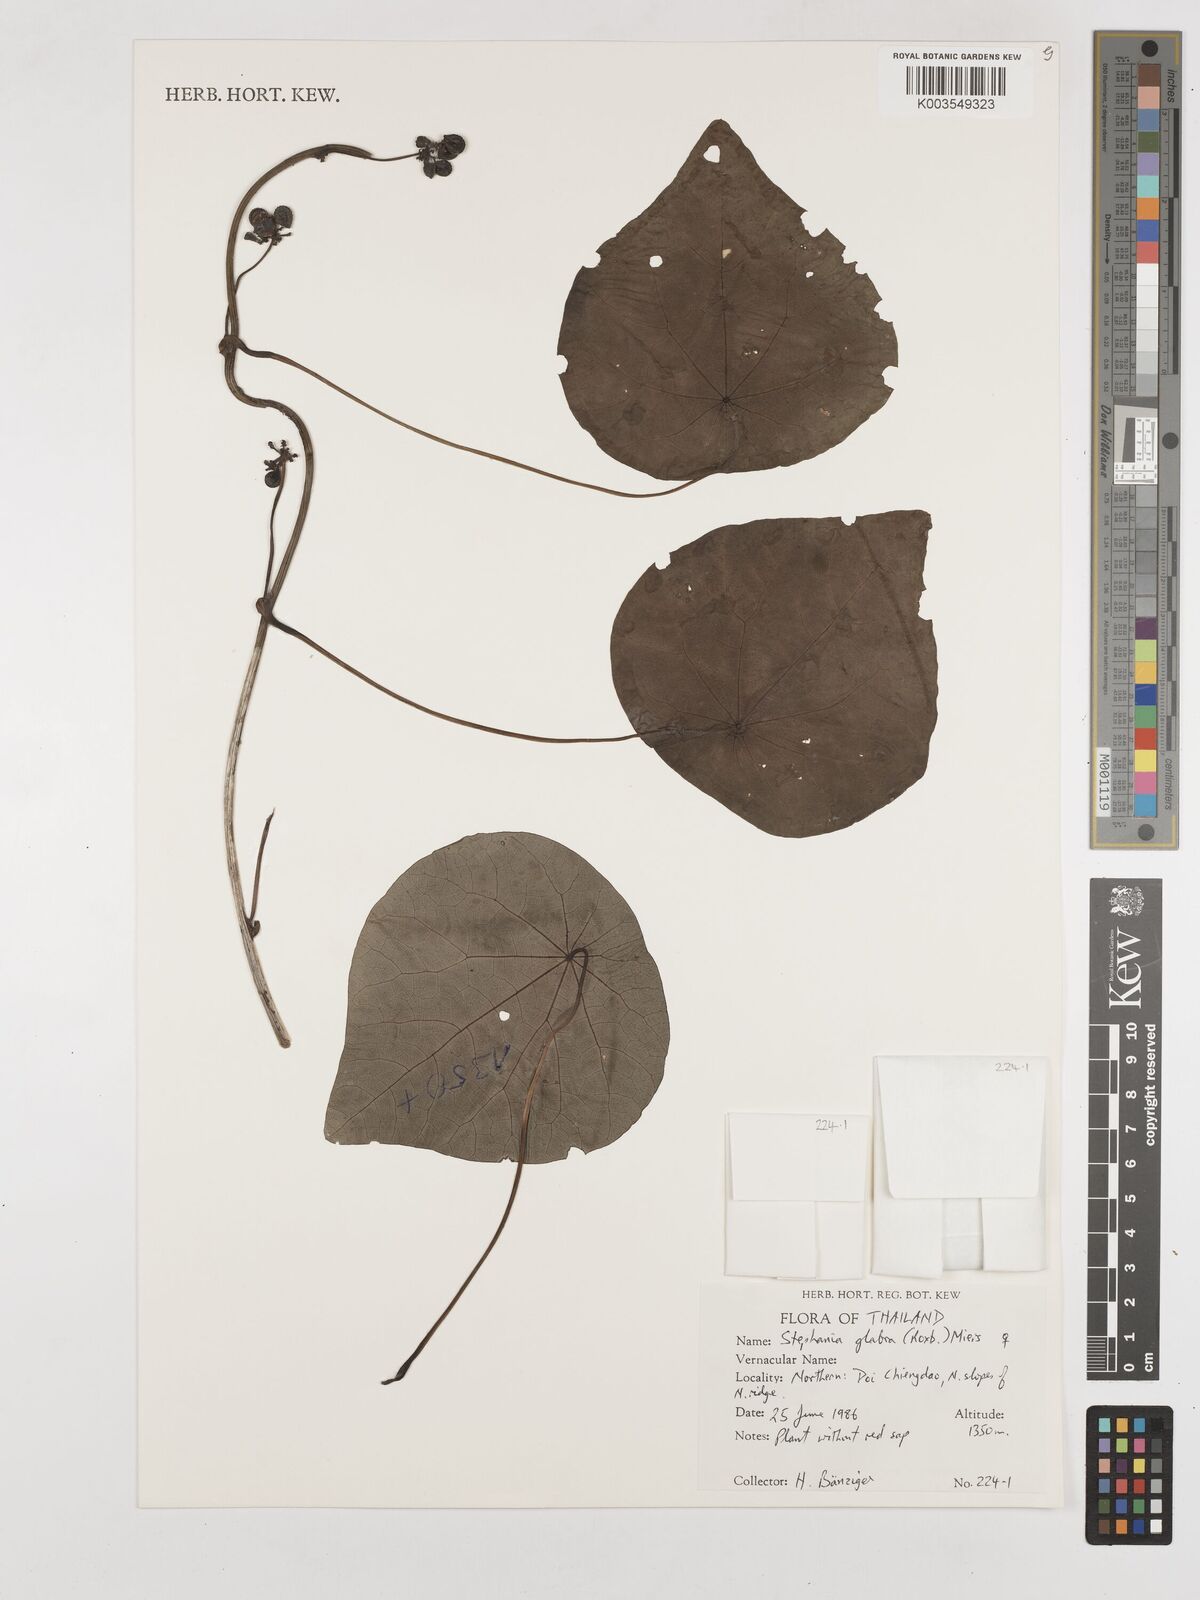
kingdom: Plantae
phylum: Tracheophyta
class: Magnoliopsida
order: Ranunculales
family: Menispermaceae
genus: Stephania
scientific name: Stephania rotunda
